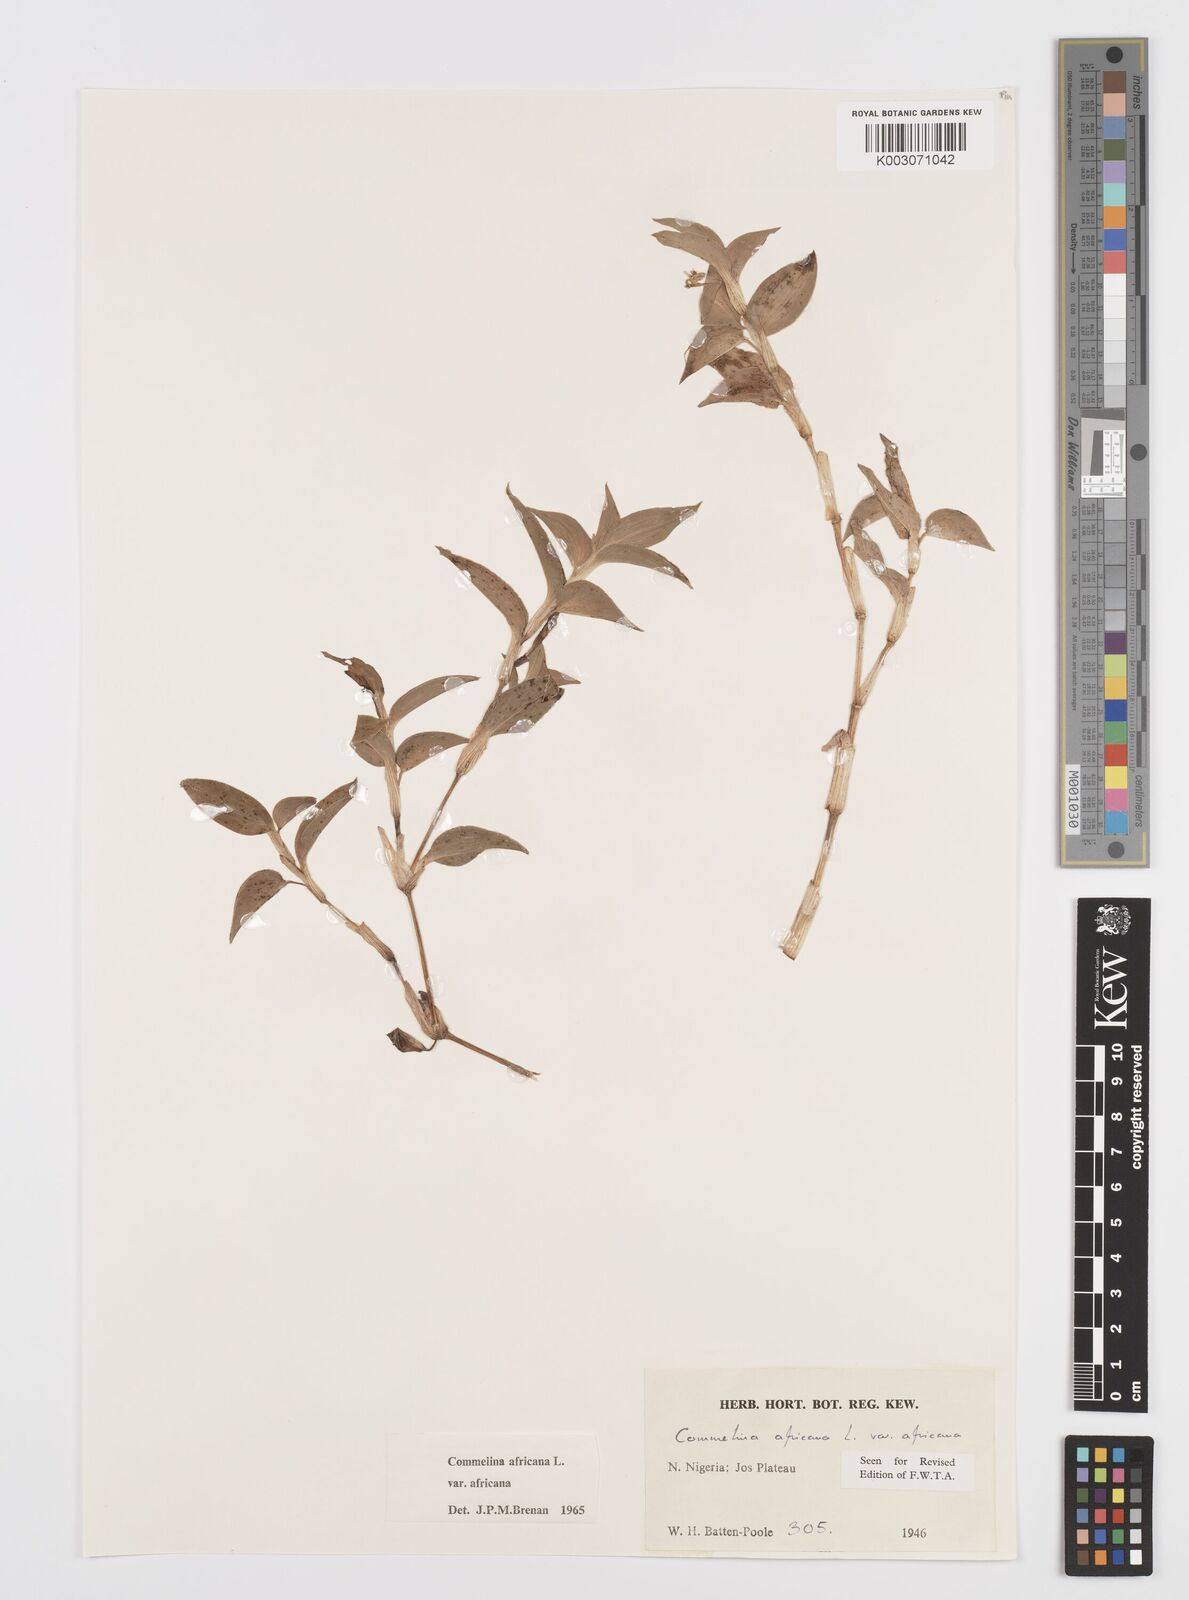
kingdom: Plantae
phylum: Tracheophyta
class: Liliopsida
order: Commelinales
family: Commelinaceae
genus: Commelina
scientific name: Commelina africana
